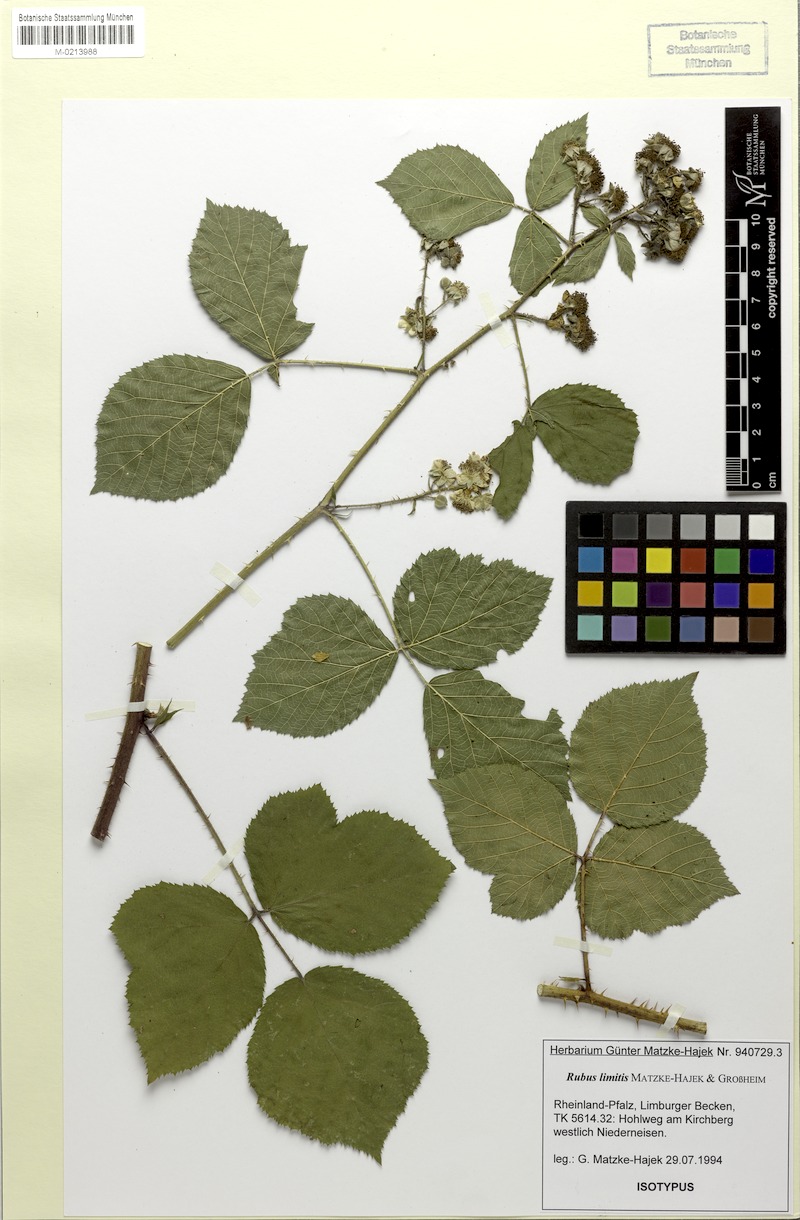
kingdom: Plantae
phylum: Tracheophyta
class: Magnoliopsida
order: Rosales
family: Rosaceae
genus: Rubus
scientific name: Rubus limitis
